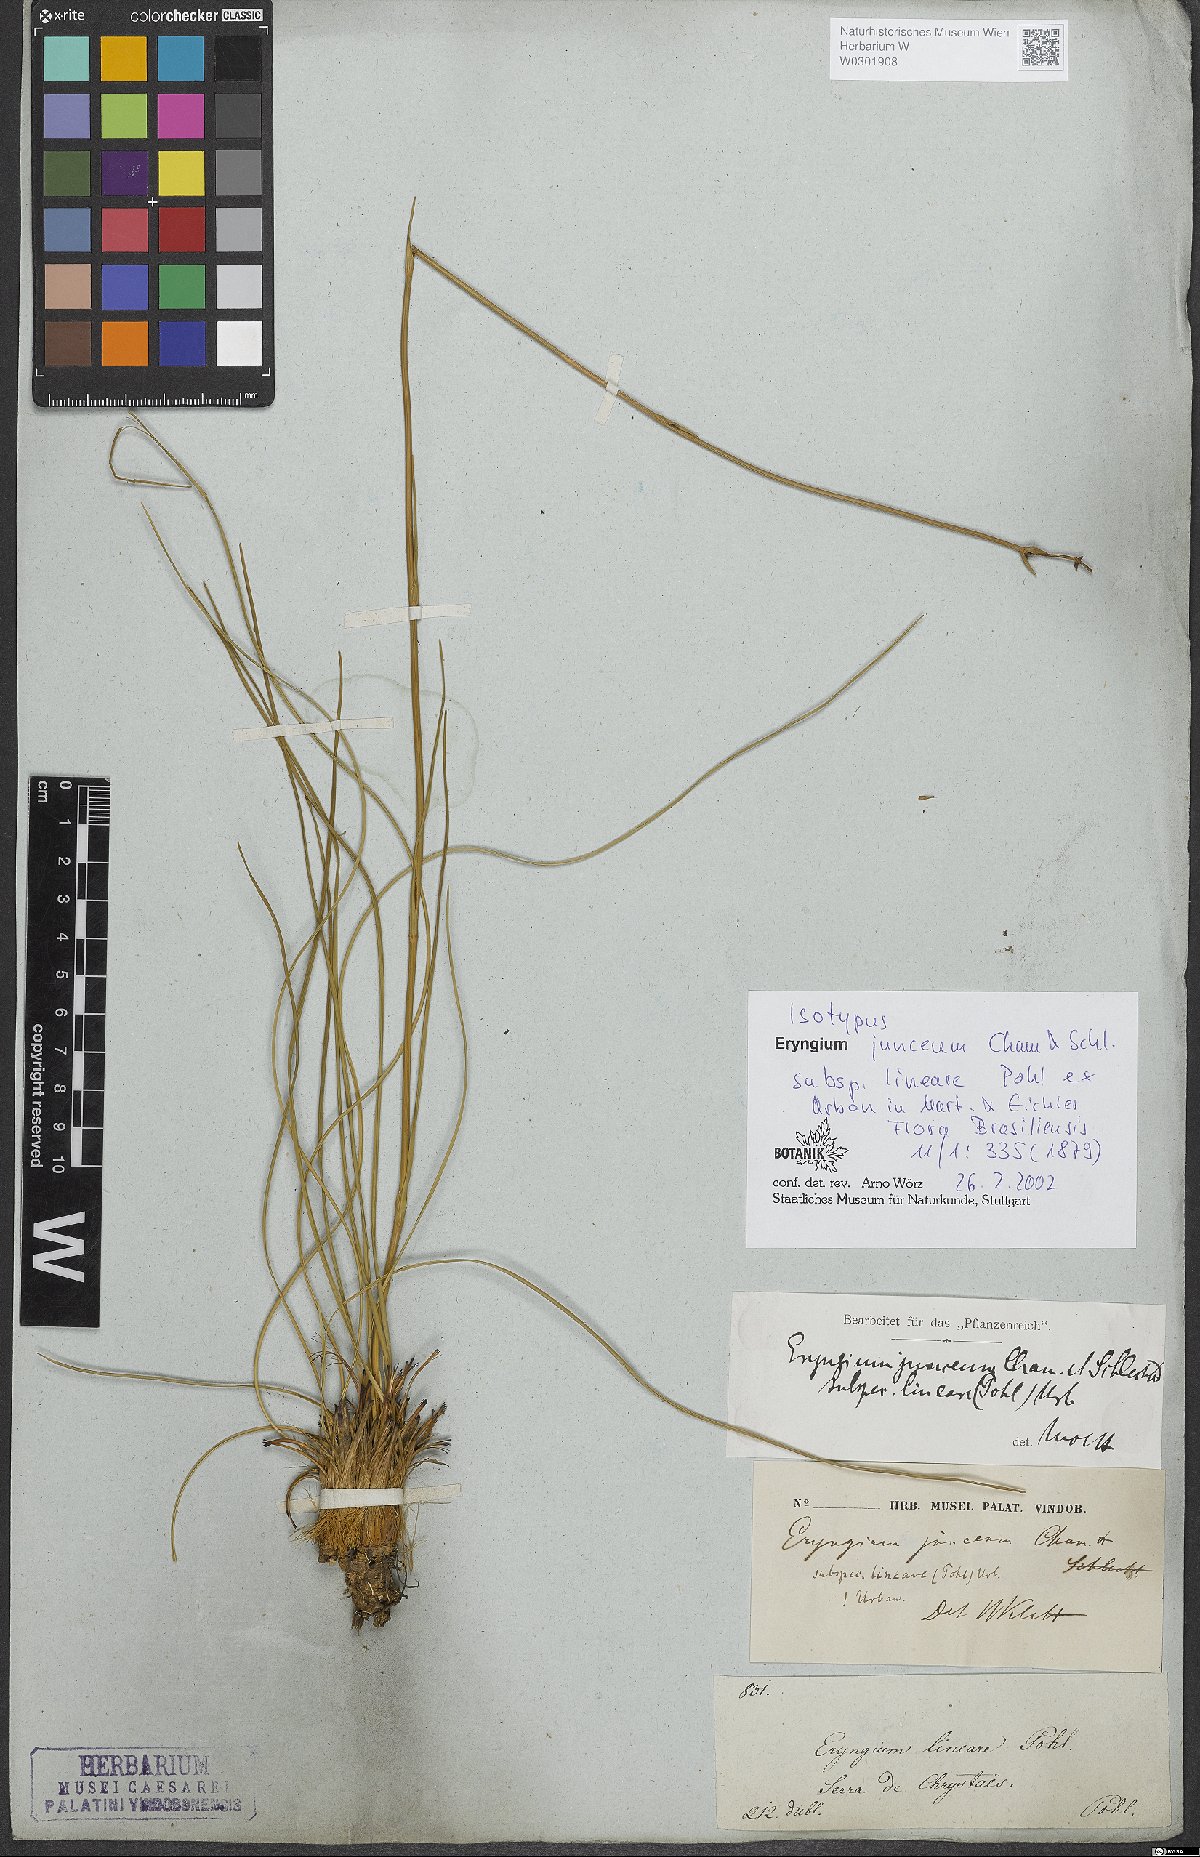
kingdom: Plantae
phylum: Tracheophyta
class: Magnoliopsida
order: Apiales
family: Apiaceae
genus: Eryngium
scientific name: Eryngium juncifolium
